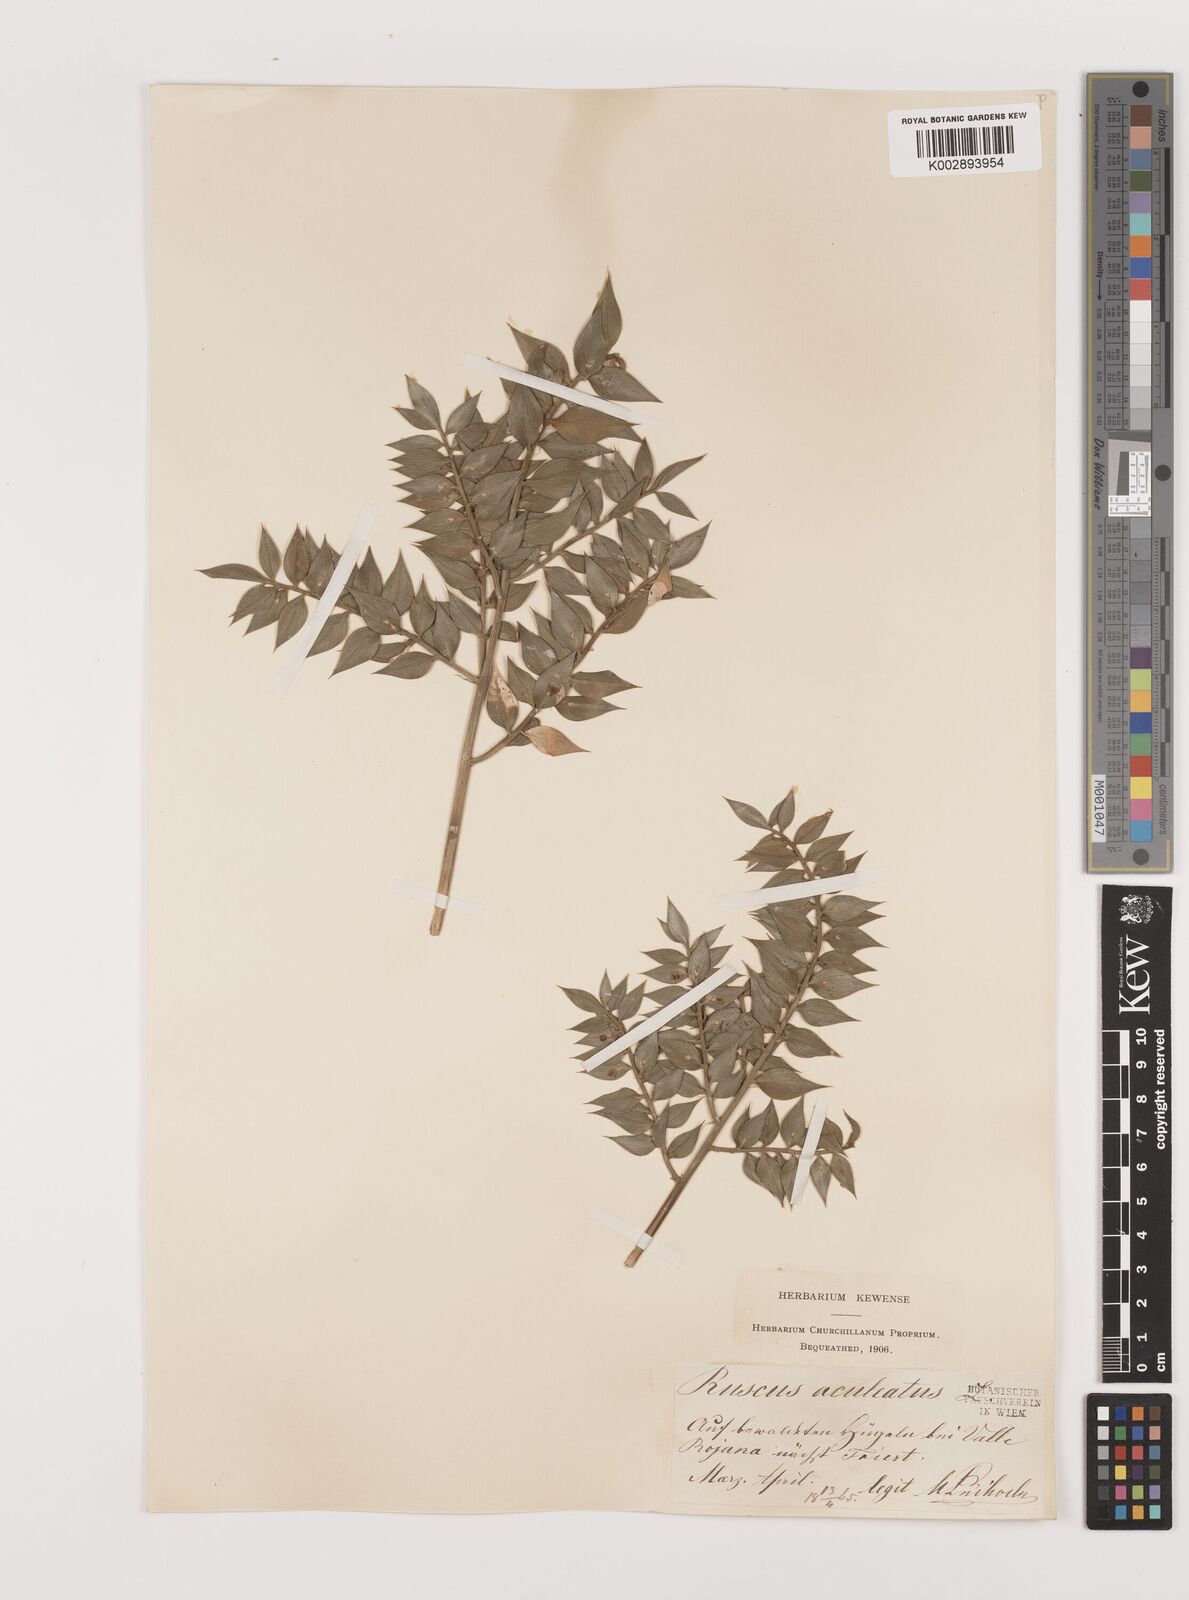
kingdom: Plantae
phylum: Tracheophyta
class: Liliopsida
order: Asparagales
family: Asparagaceae
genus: Ruscus
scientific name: Ruscus aculeatus
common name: Butcher's-broom
